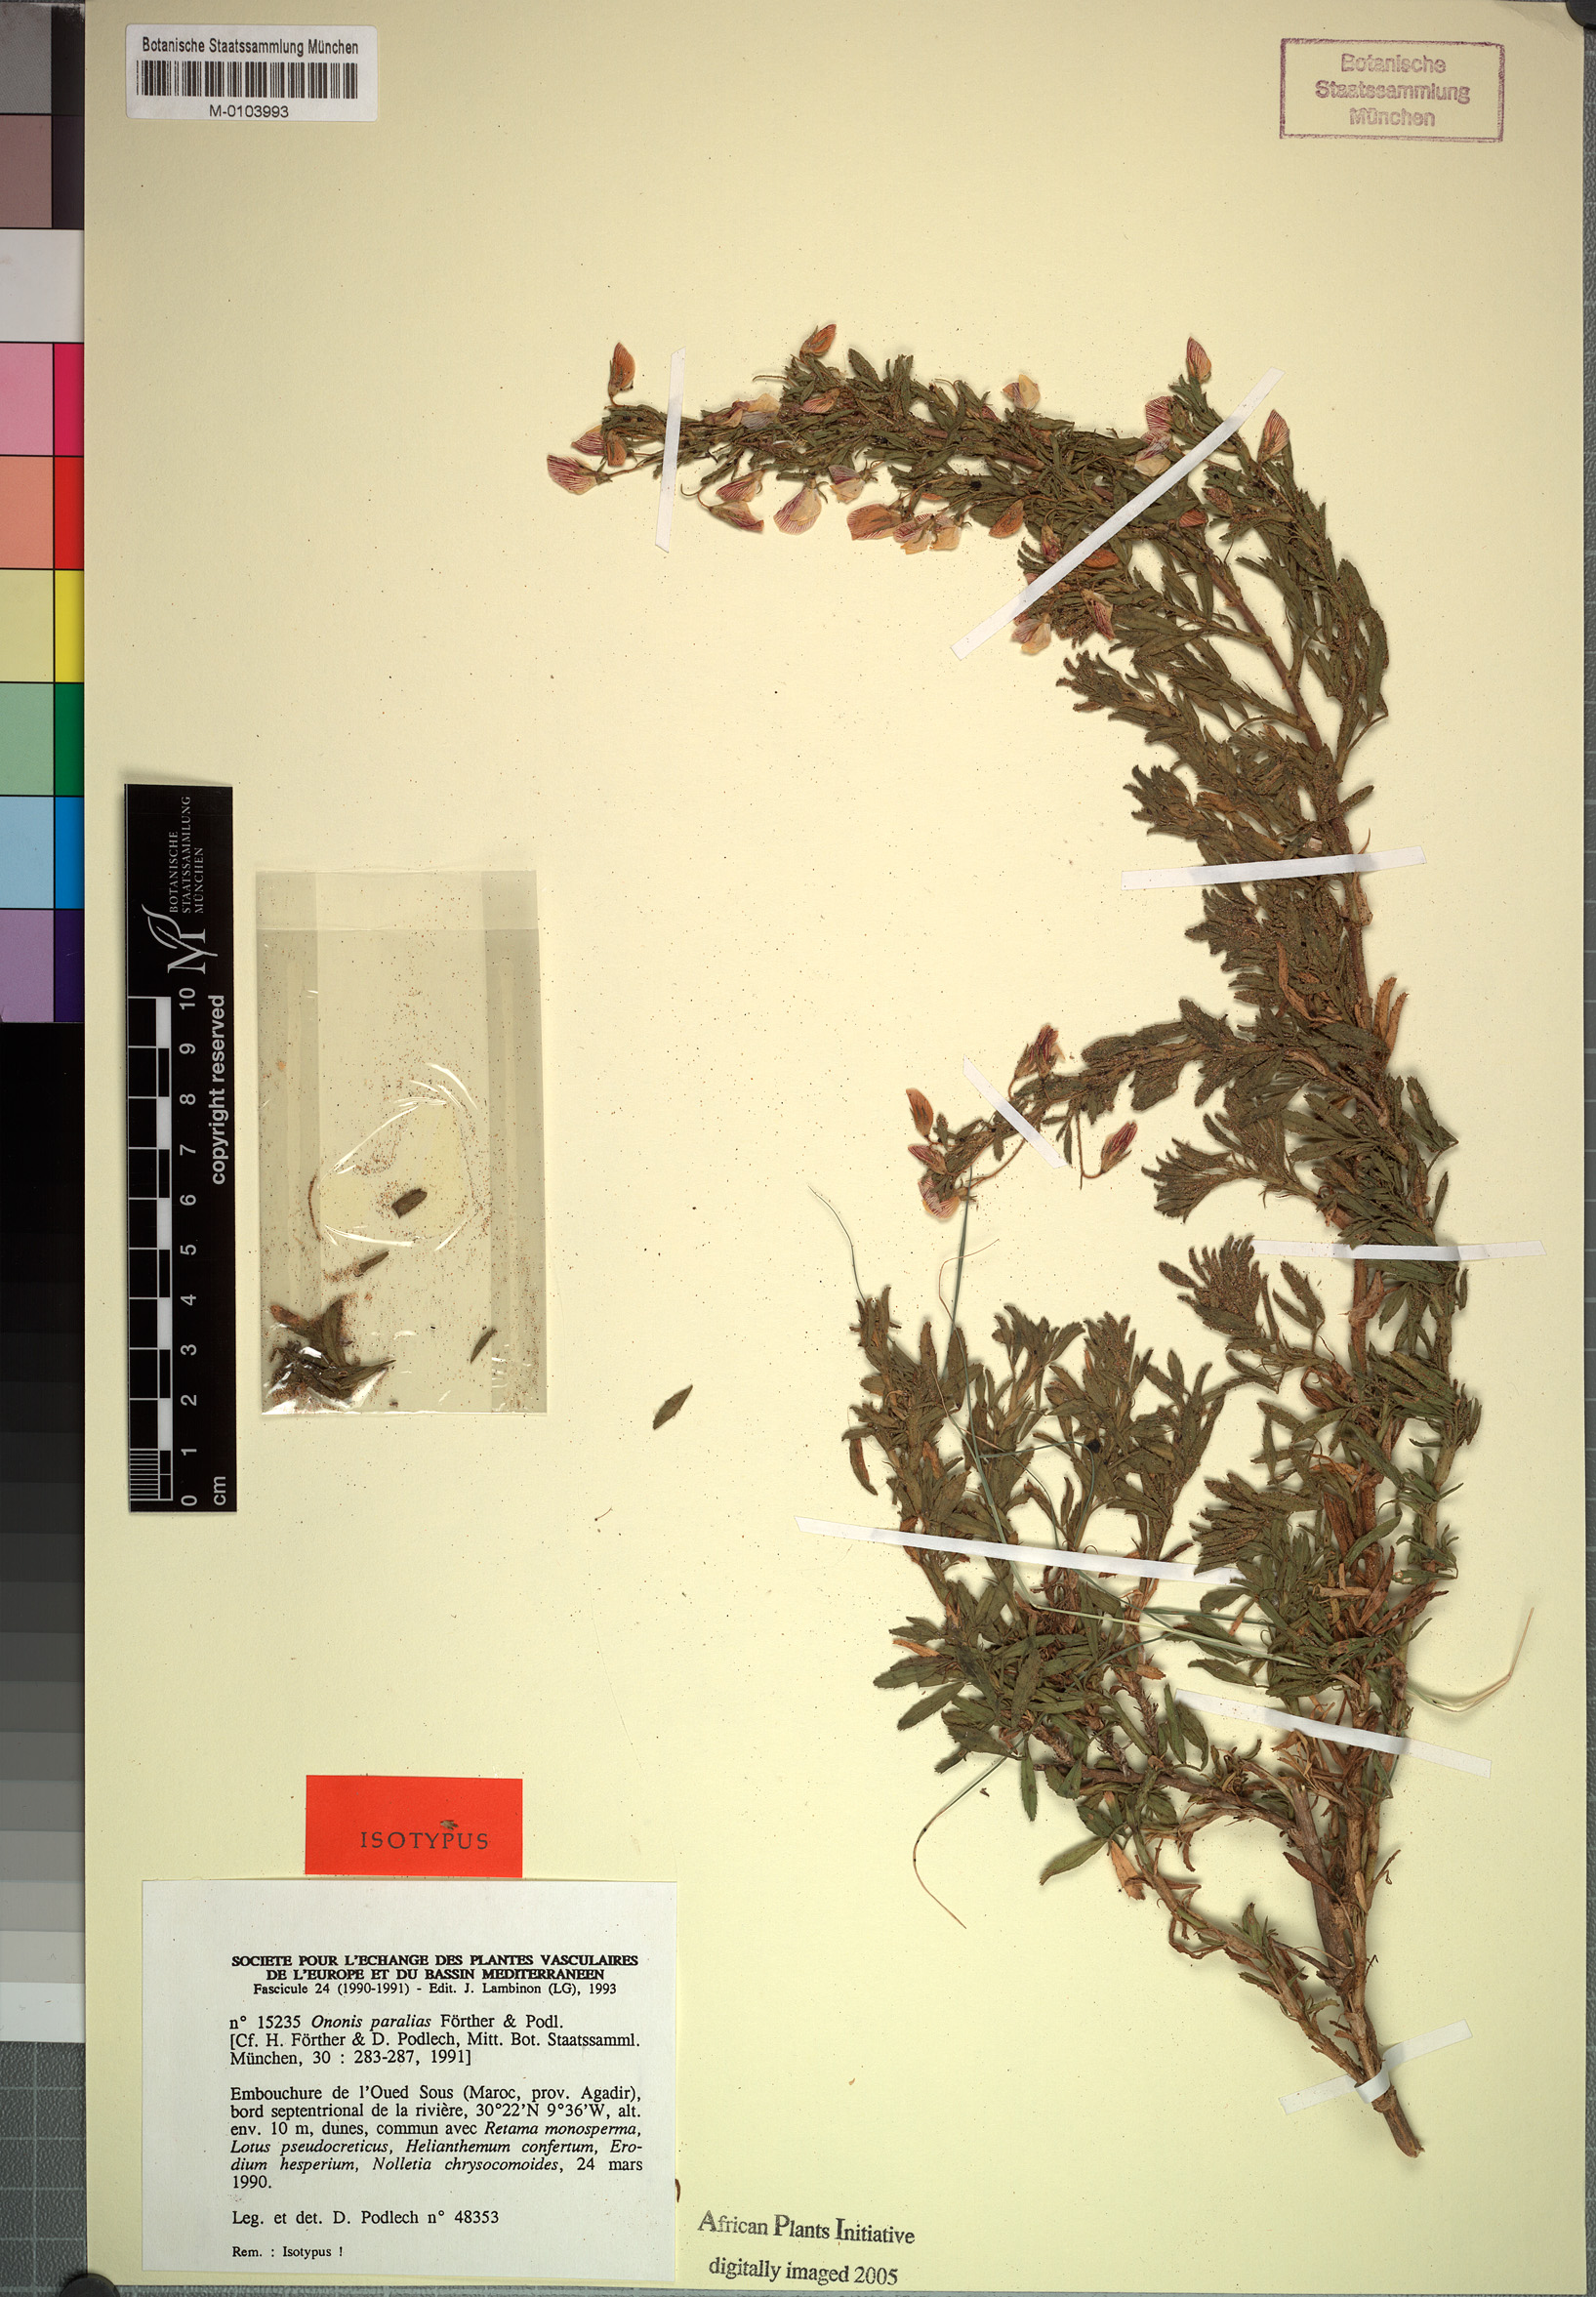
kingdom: Plantae
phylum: Tracheophyta
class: Magnoliopsida
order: Fabales
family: Fabaceae
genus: Ononis
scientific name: Ononis angustissima
